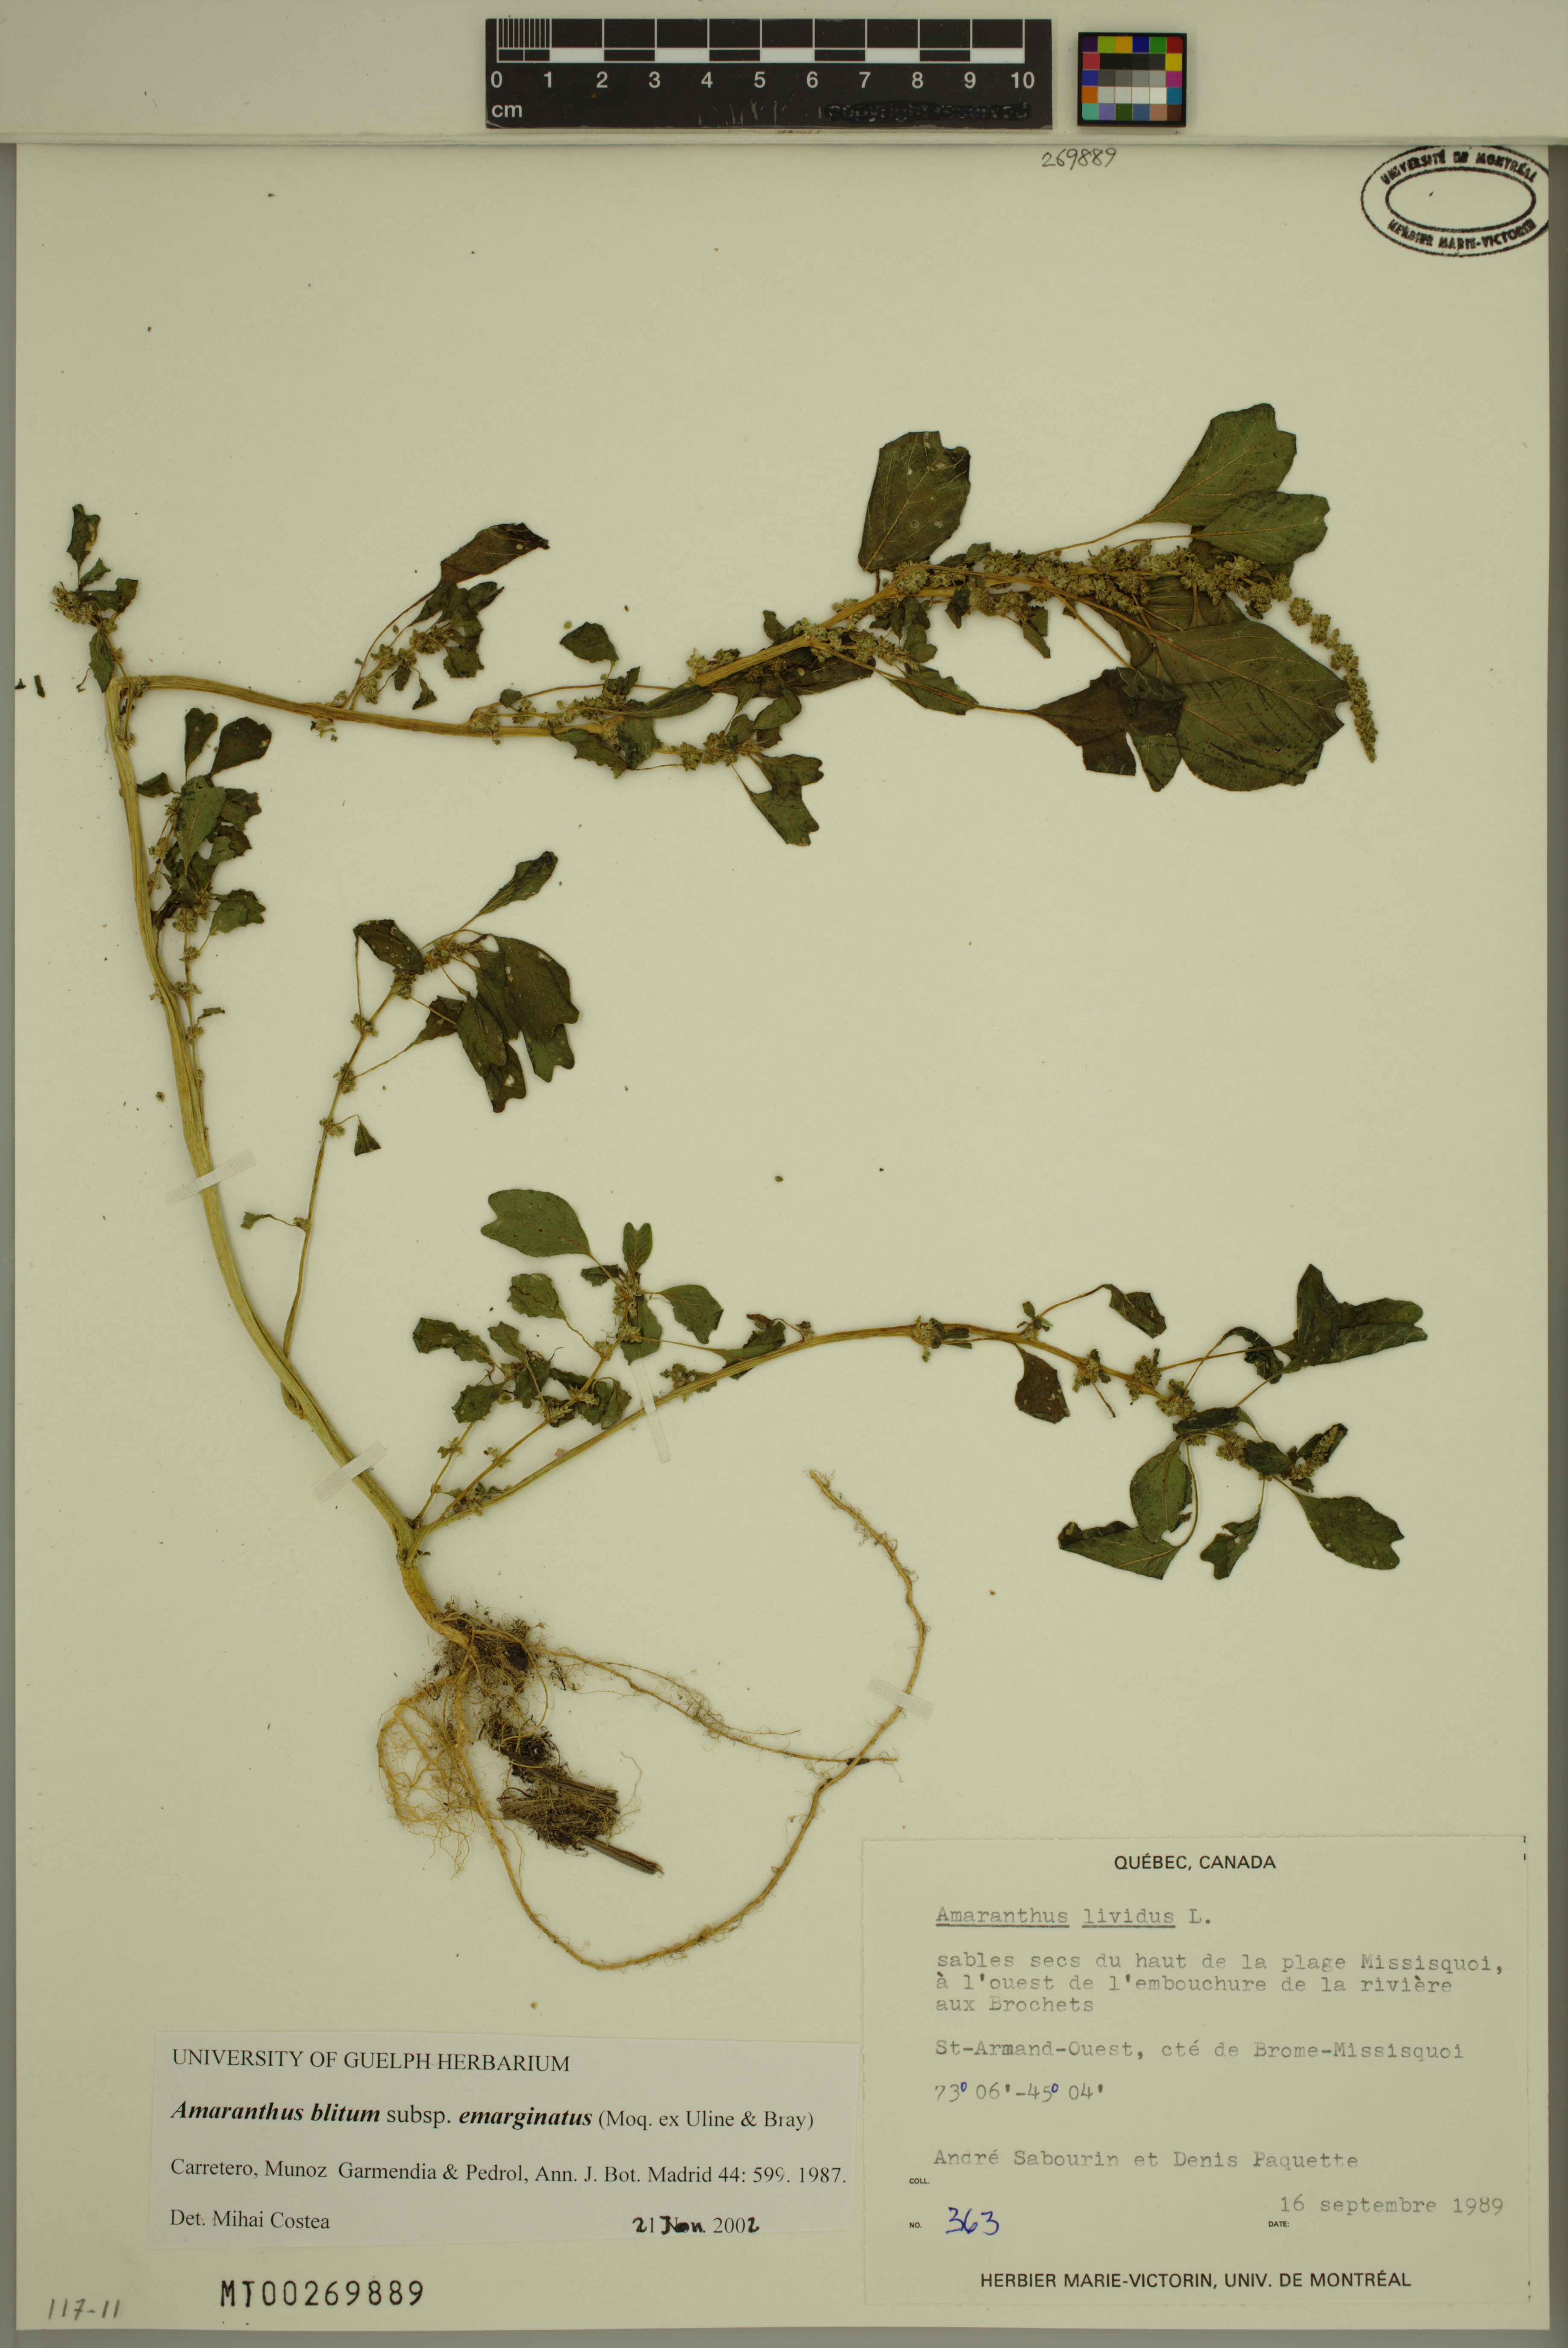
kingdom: Plantae
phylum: Tracheophyta
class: Magnoliopsida
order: Caryophyllales
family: Amaranthaceae
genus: Amaranthus
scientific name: Amaranthus emarginatus
